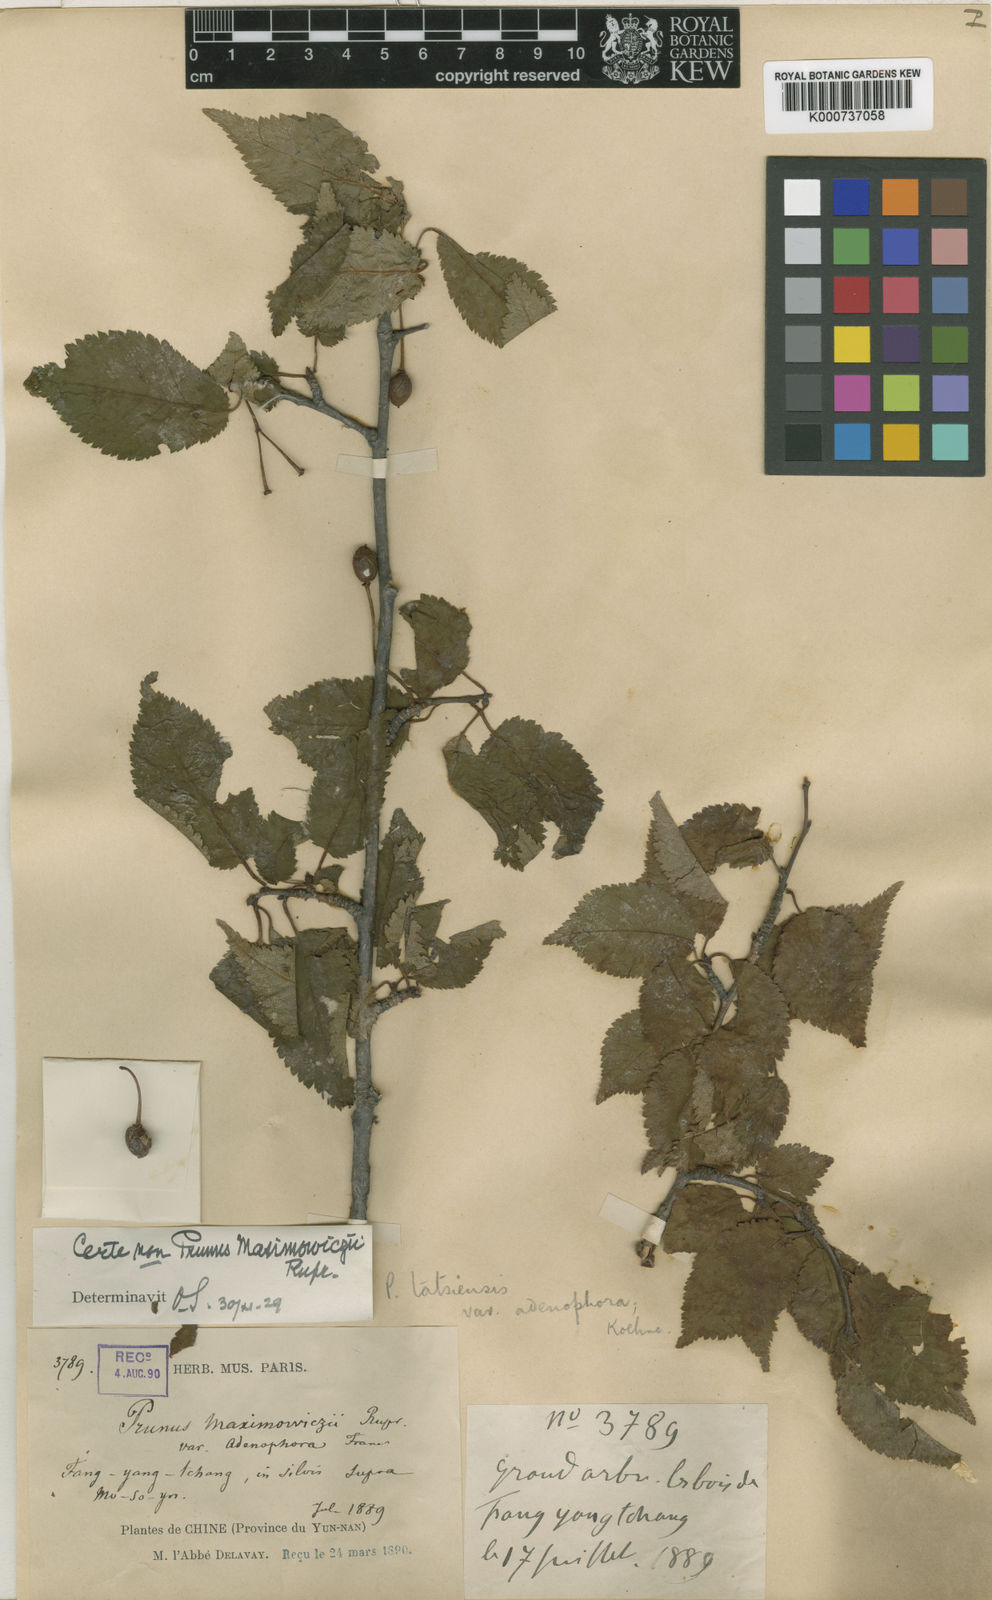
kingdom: Plantae
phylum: Tracheophyta
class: Magnoliopsida
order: Rosales
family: Rosaceae
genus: Prunus
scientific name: Prunus tatsienensis
